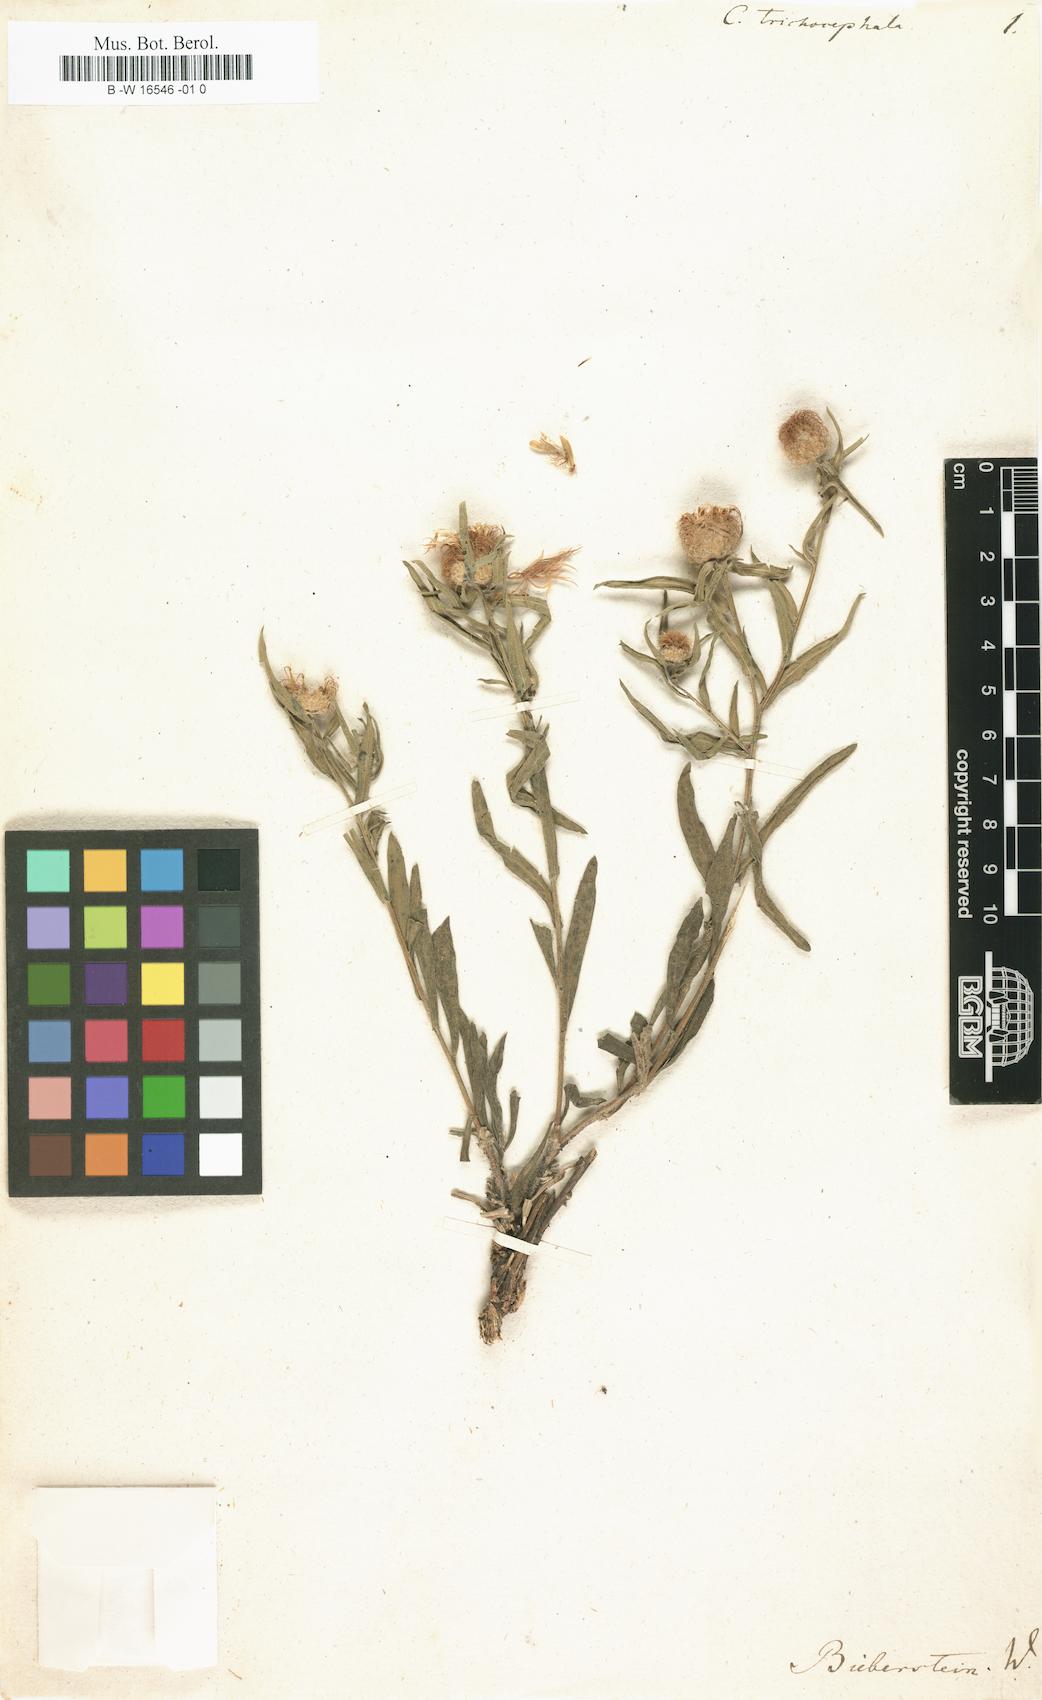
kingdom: Plantae
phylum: Tracheophyta
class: Magnoliopsida
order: Asterales
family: Asteraceae
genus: Centaurea
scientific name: Centaurea trichocephala
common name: Feather-head knapweed
